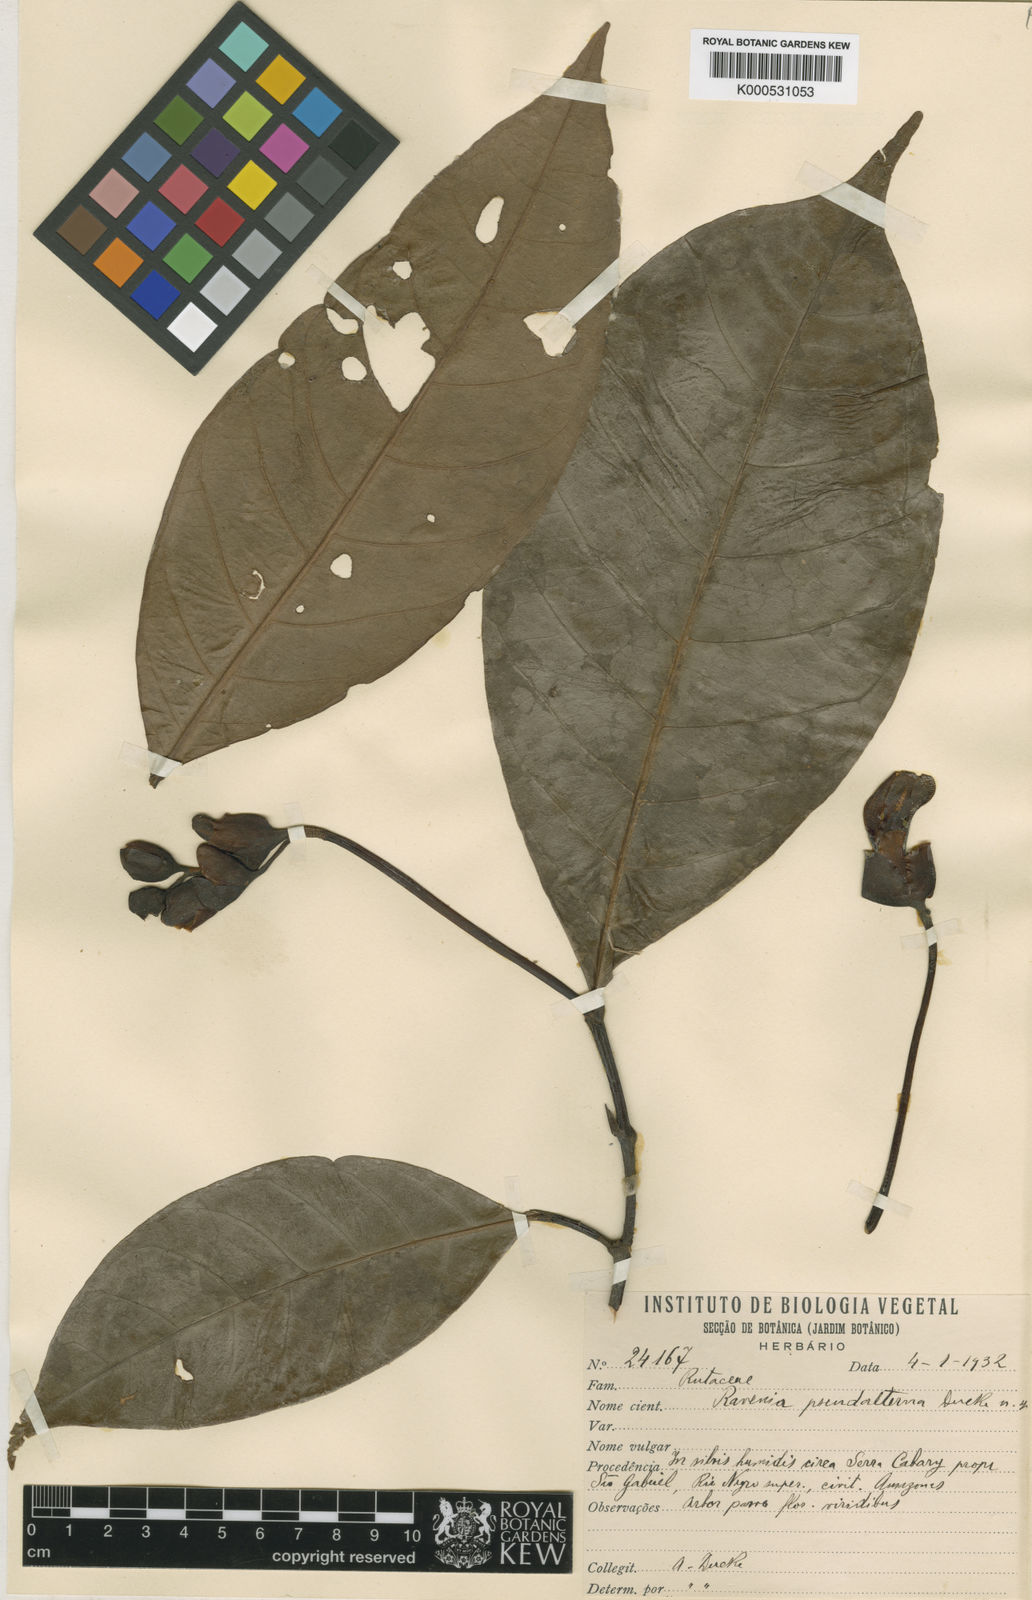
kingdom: Plantae
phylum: Tracheophyta
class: Magnoliopsida
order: Sapindales
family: Rutaceae
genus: Ravenia
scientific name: Ravenia pseudalterna
